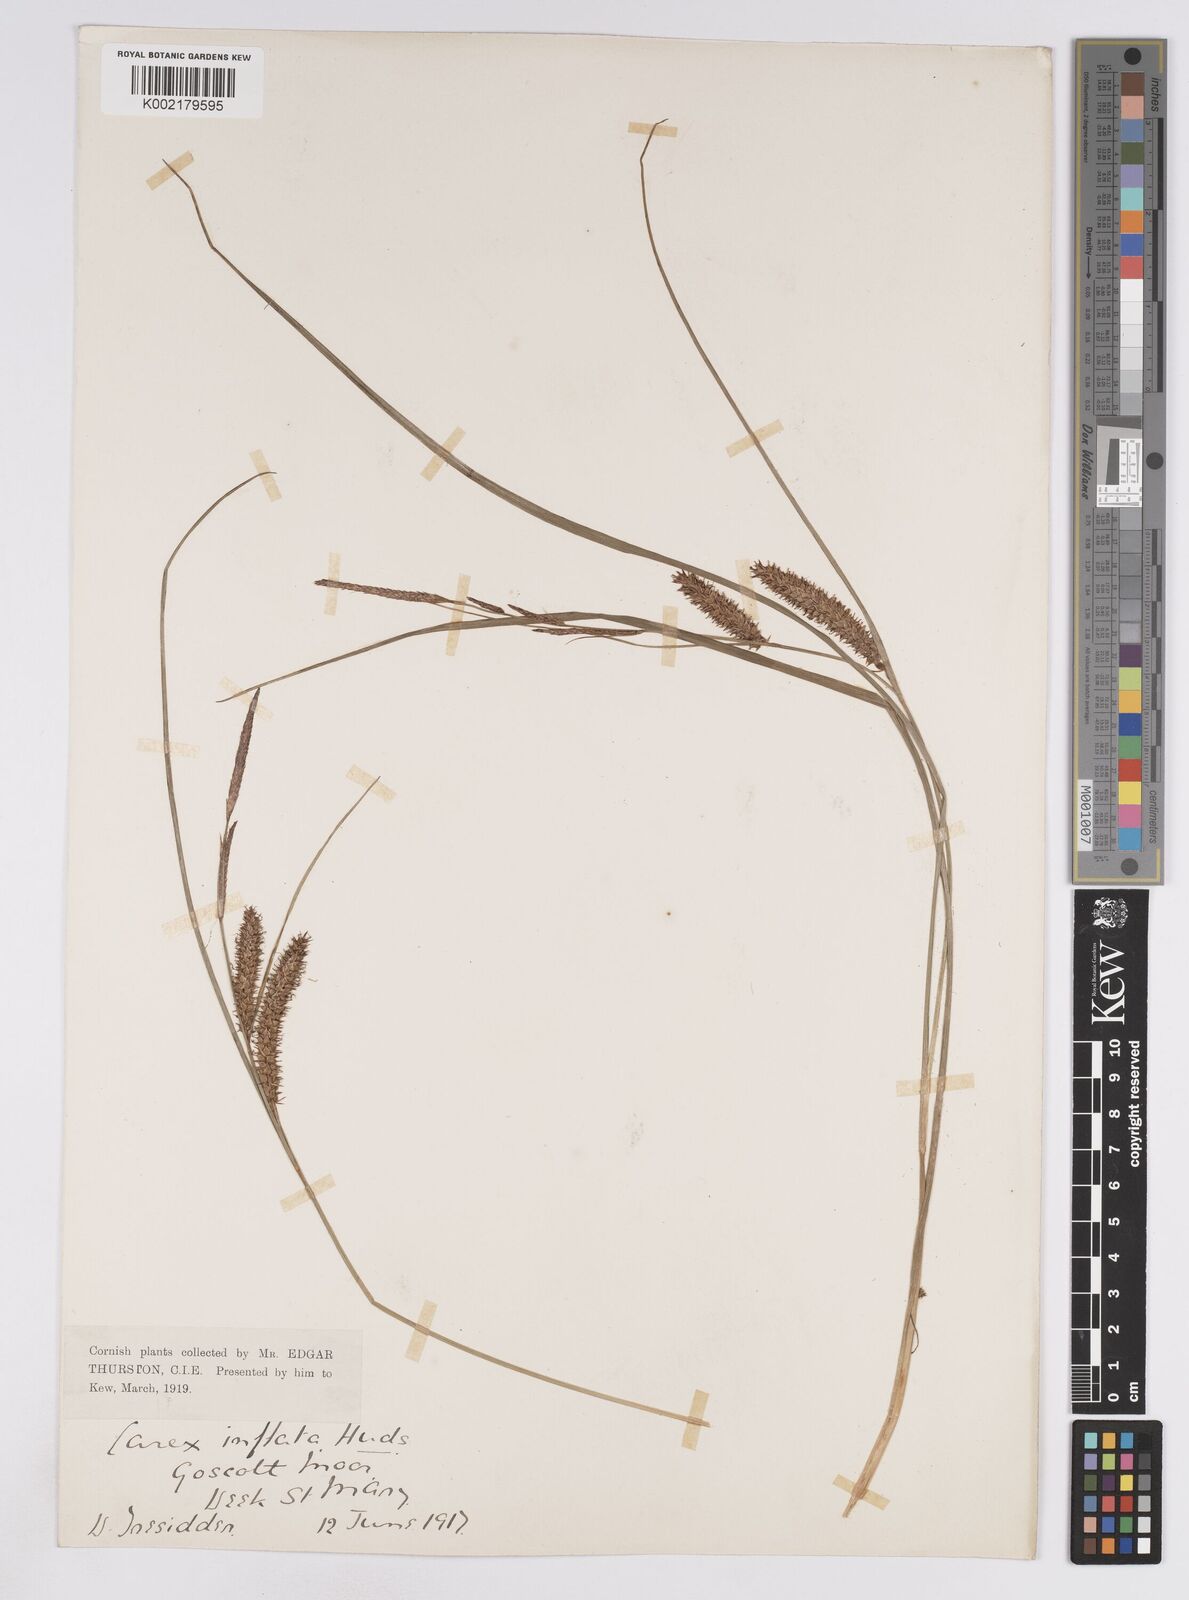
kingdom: Plantae
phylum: Tracheophyta
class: Liliopsida
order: Poales
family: Cyperaceae
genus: Carex
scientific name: Carex rostrata
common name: Bottle sedge
